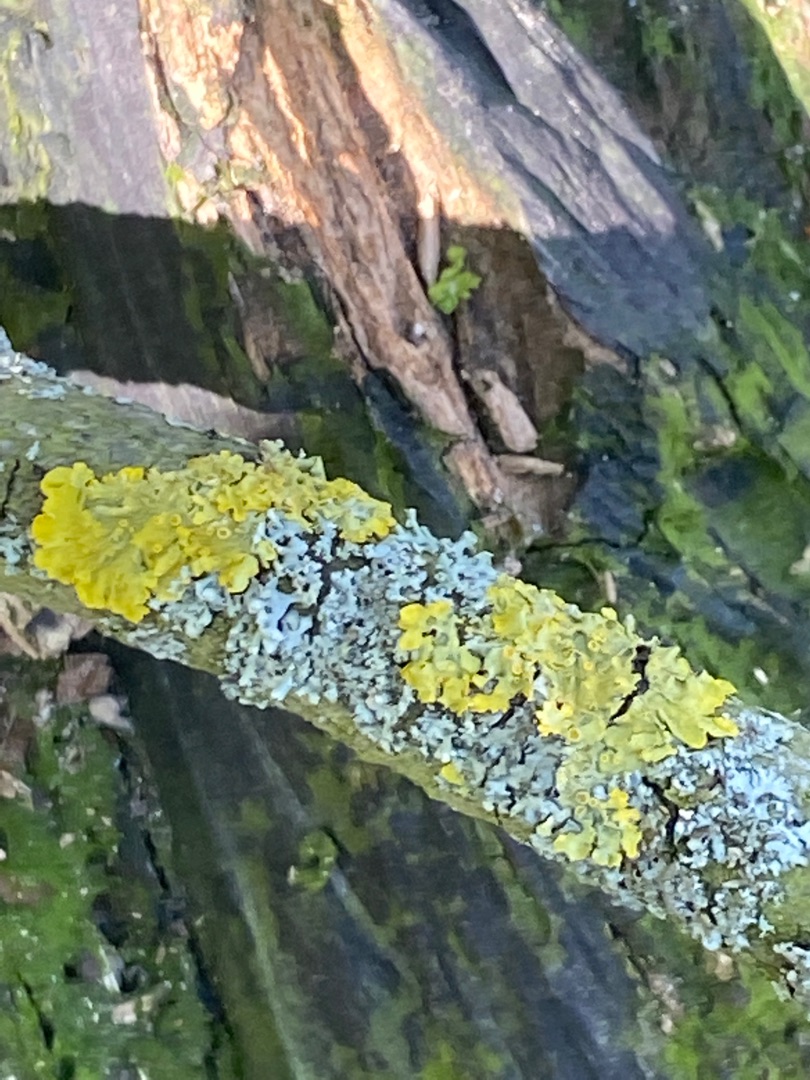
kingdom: Fungi
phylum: Ascomycota
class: Lecanoromycetes
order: Teloschistales
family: Teloschistaceae
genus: Xanthoria
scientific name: Xanthoria parietina
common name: Almindelig væggelav
